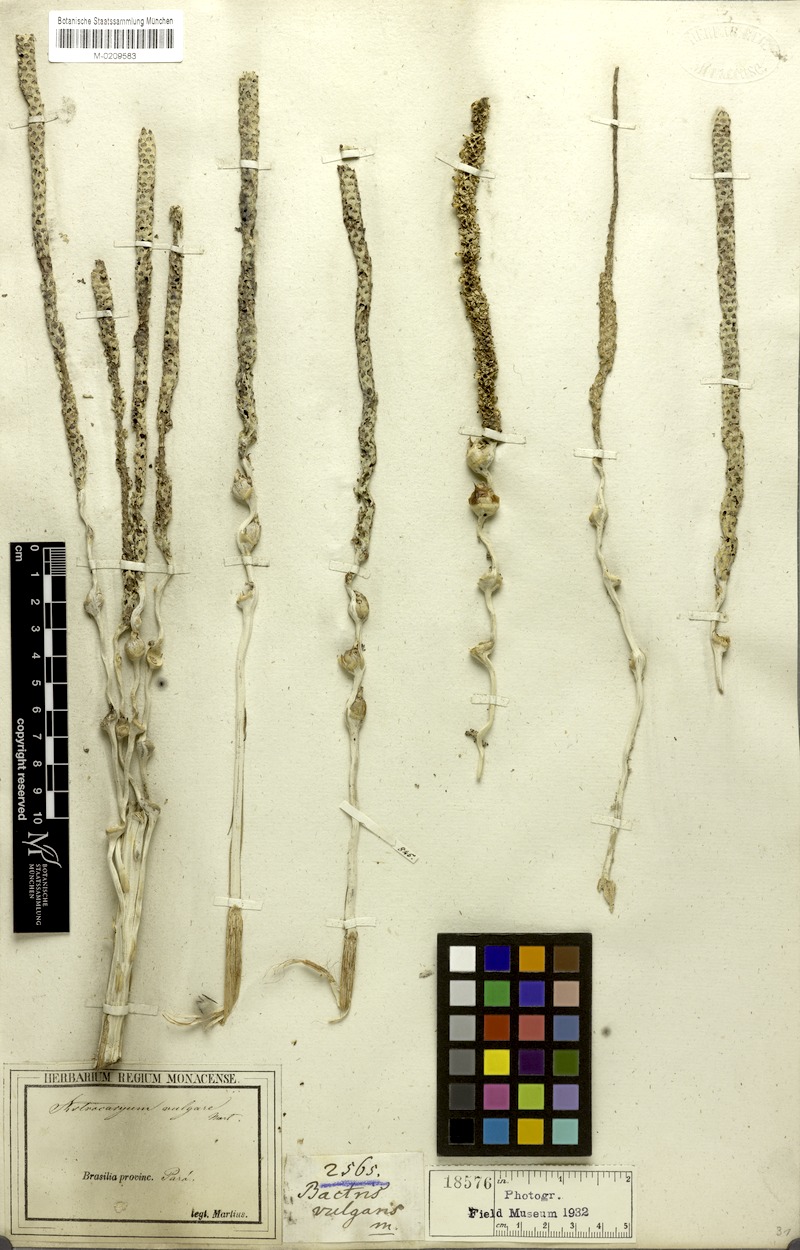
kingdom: Plantae
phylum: Tracheophyta
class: Liliopsida
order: Arecales
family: Arecaceae
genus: Astrocaryum
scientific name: Astrocaryum vulgare
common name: Tucum palm
